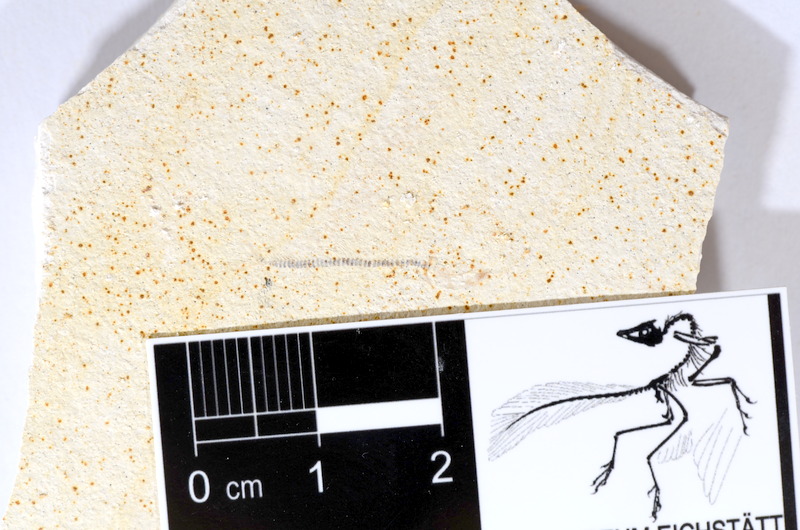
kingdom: Animalia
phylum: Chordata
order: Salmoniformes
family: Orthogonikleithridae
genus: Orthogonikleithrus
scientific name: Orthogonikleithrus hoelli
